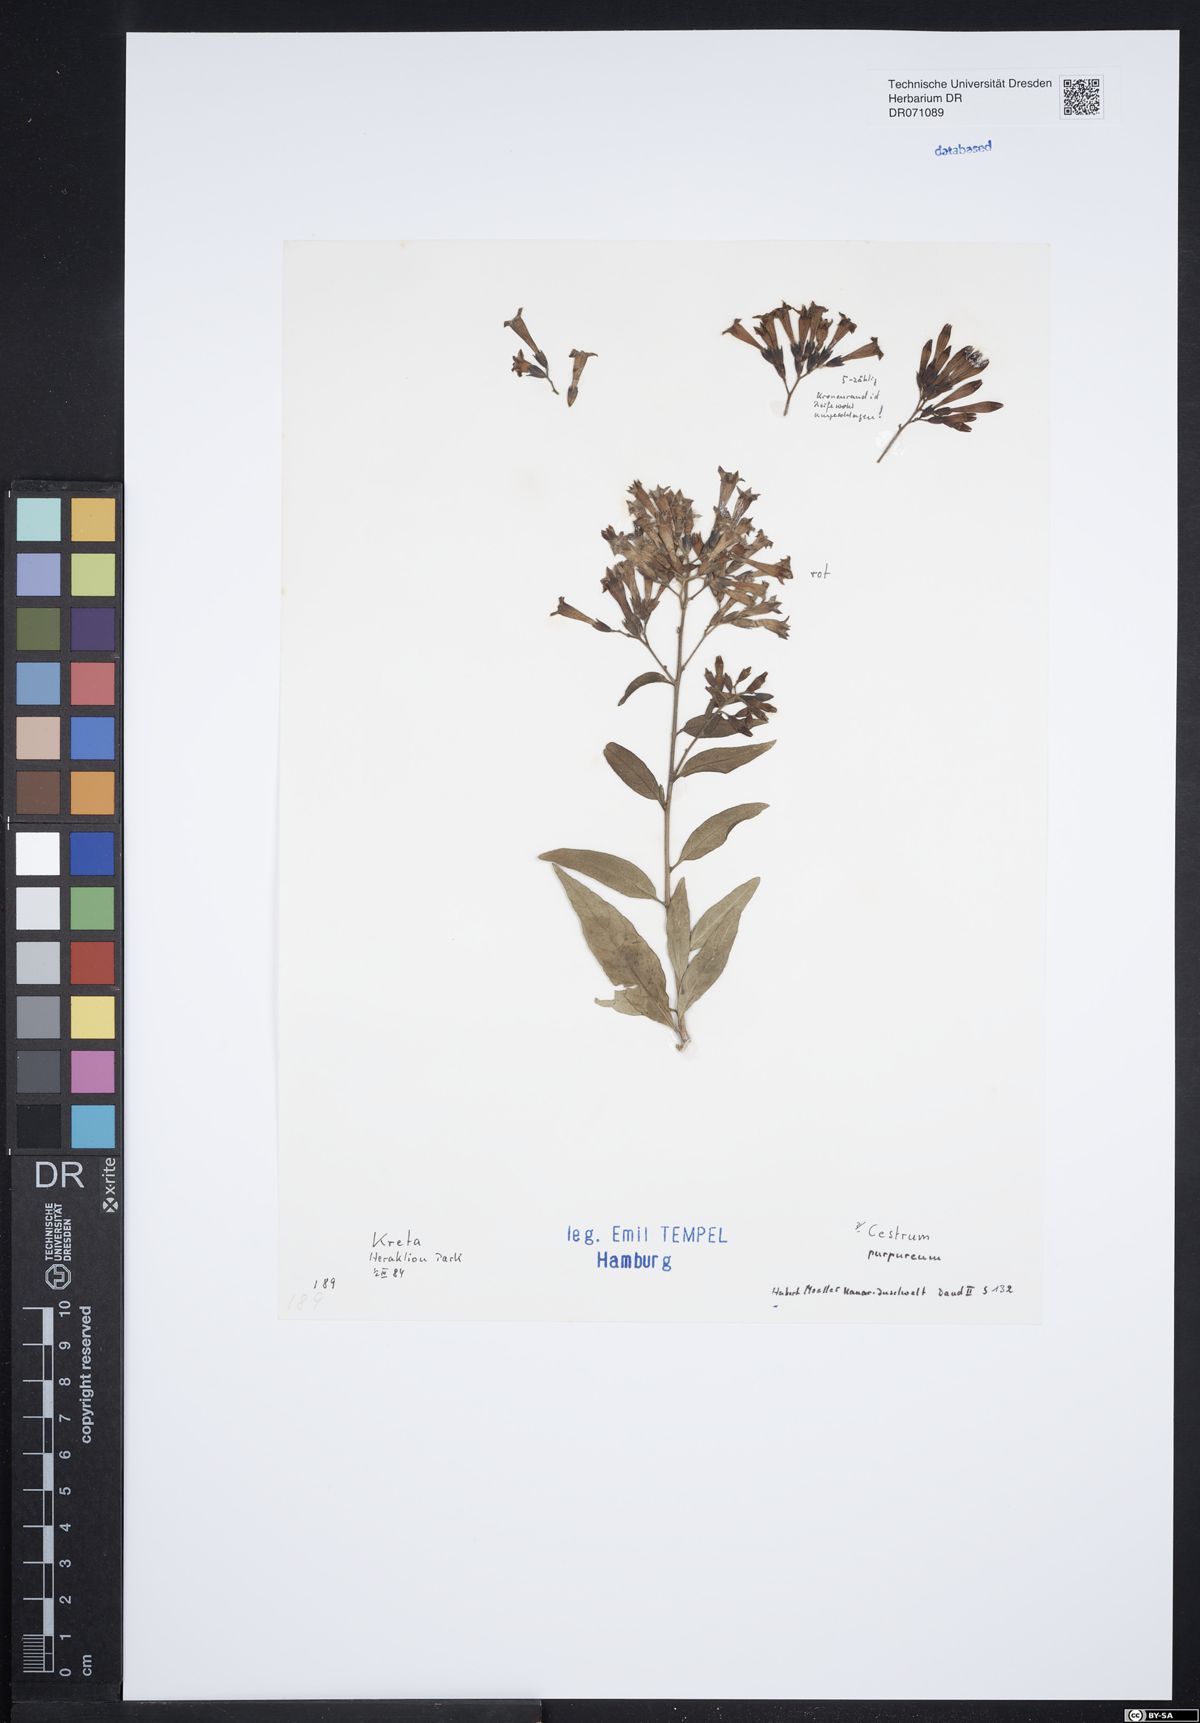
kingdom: Plantae
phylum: Tracheophyta
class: Magnoliopsida
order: Solanales
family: Solanaceae
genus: Cestrum
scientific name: Cestrum elegans
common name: Crimson cestrum
